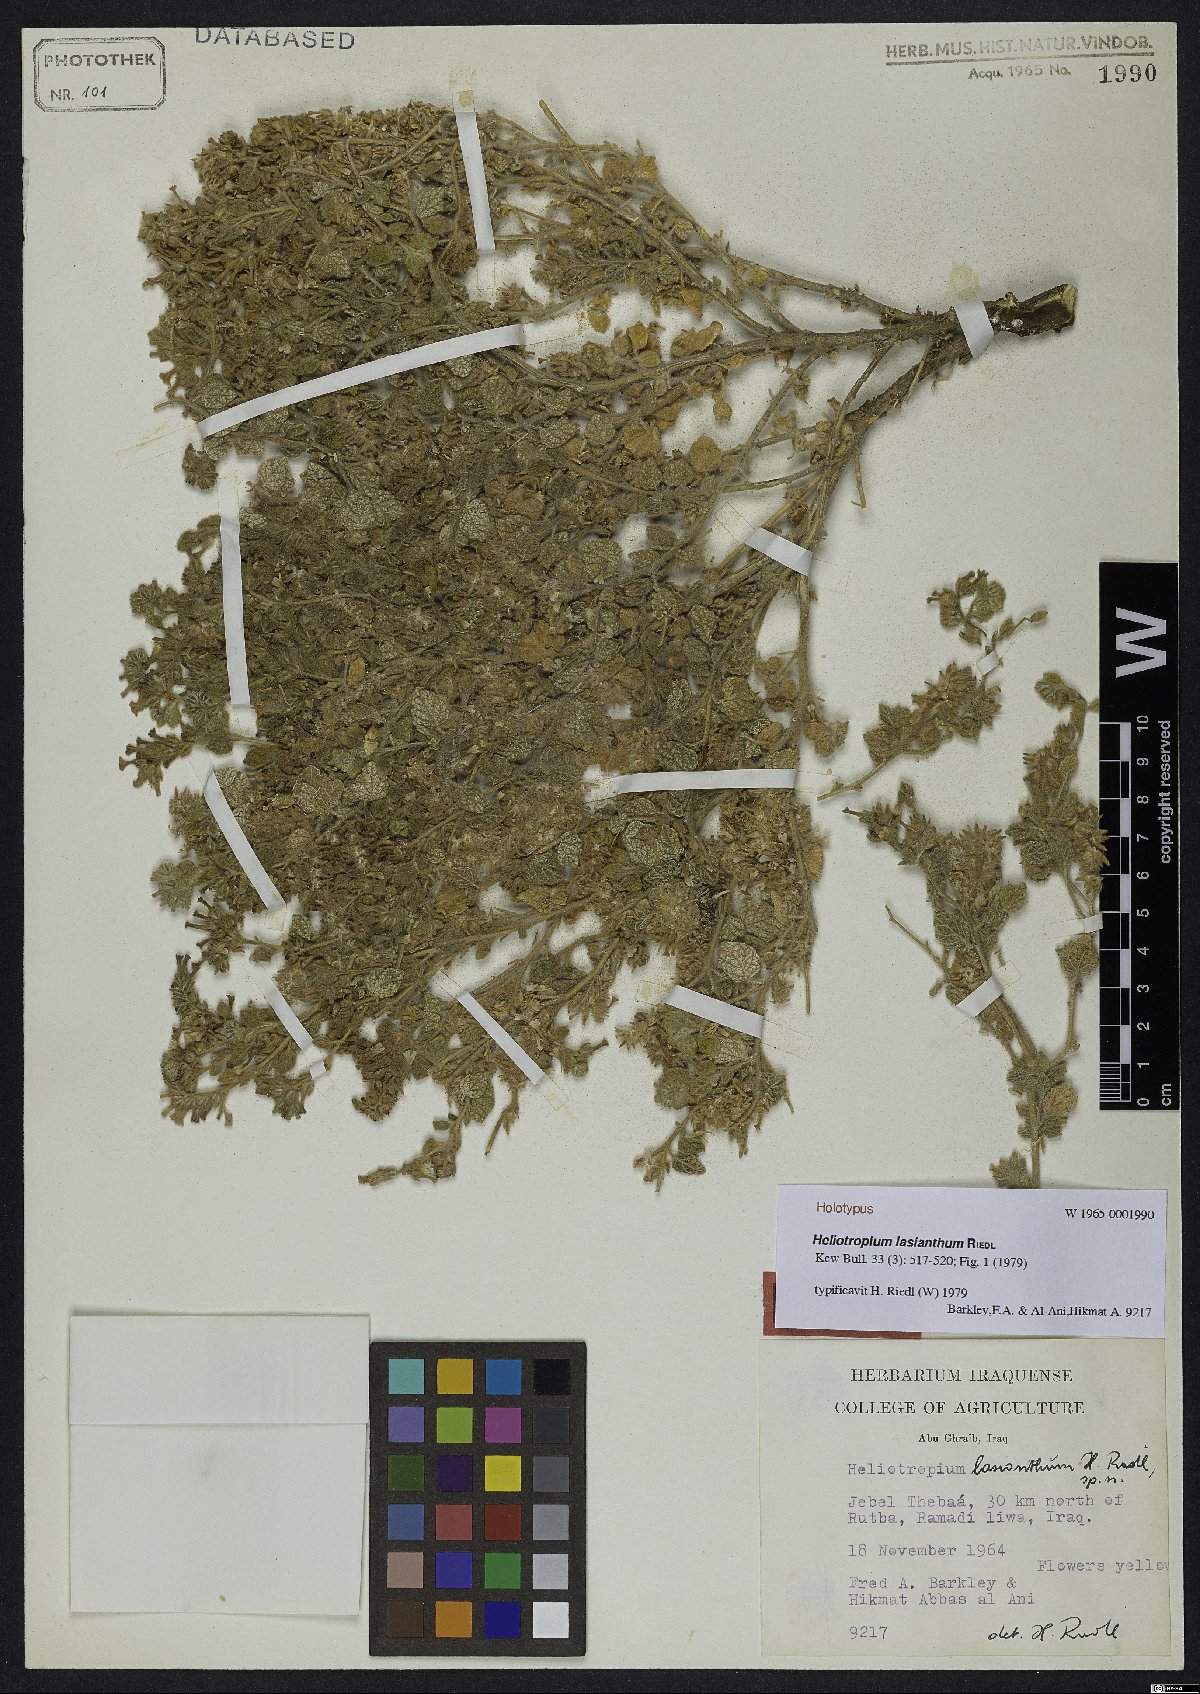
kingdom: Plantae
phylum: Tracheophyta
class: Magnoliopsida
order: Boraginales
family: Heliotropiaceae
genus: Heliotropium
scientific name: Heliotropium lasianthum
